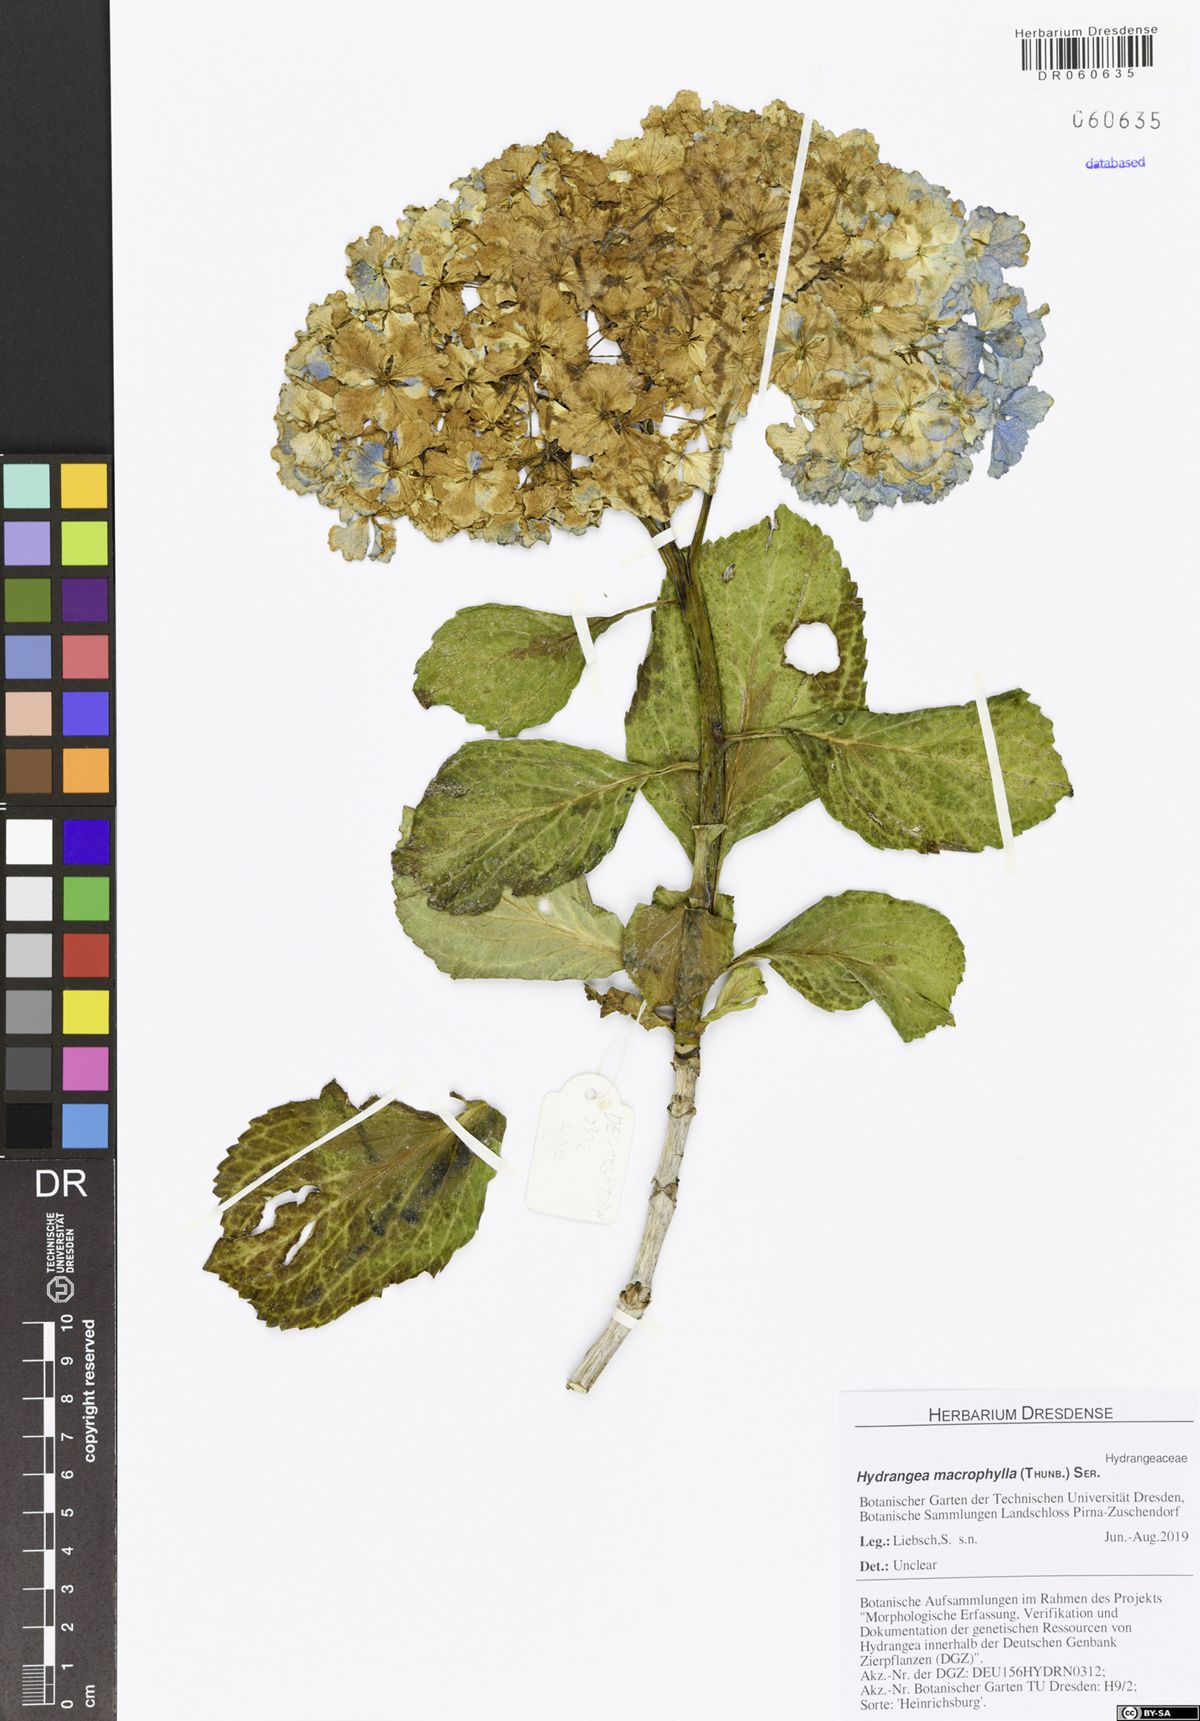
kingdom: Plantae
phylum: Tracheophyta
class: Magnoliopsida
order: Cornales
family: Hydrangeaceae
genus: Hydrangea
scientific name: Hydrangea macrophylla
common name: Hydrangea
